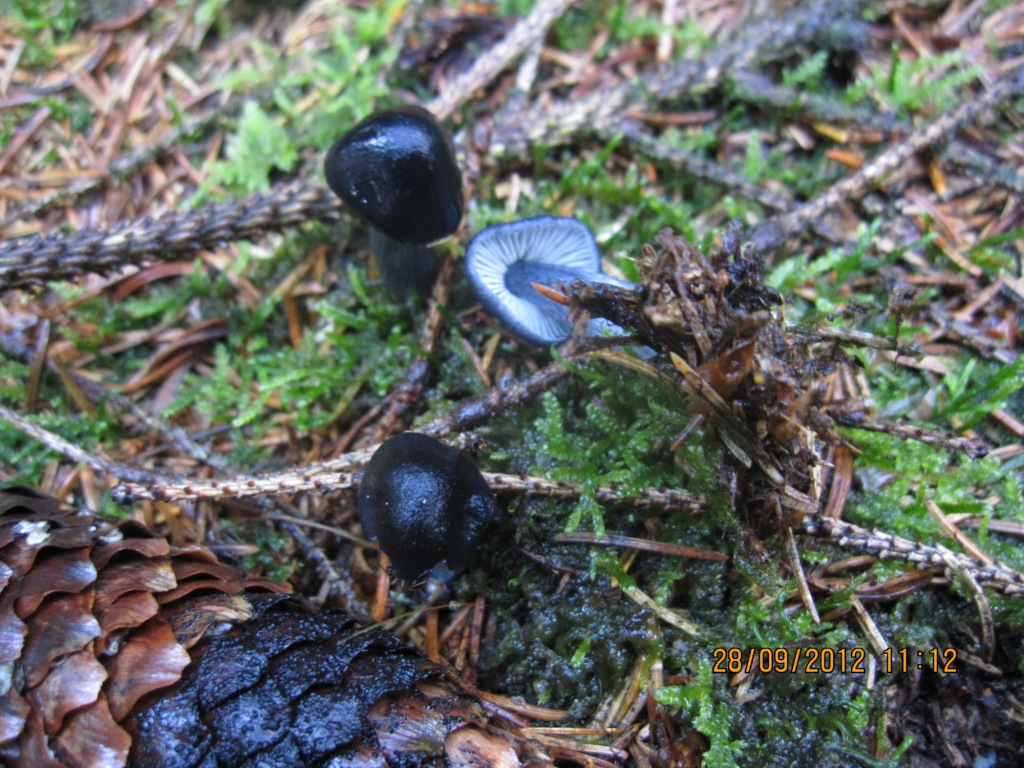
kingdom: Fungi
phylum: Basidiomycota
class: Agaricomycetes
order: Agaricales
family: Entolomataceae
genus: Entocybe
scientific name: Entocybe nitida
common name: stålblå rødblad
